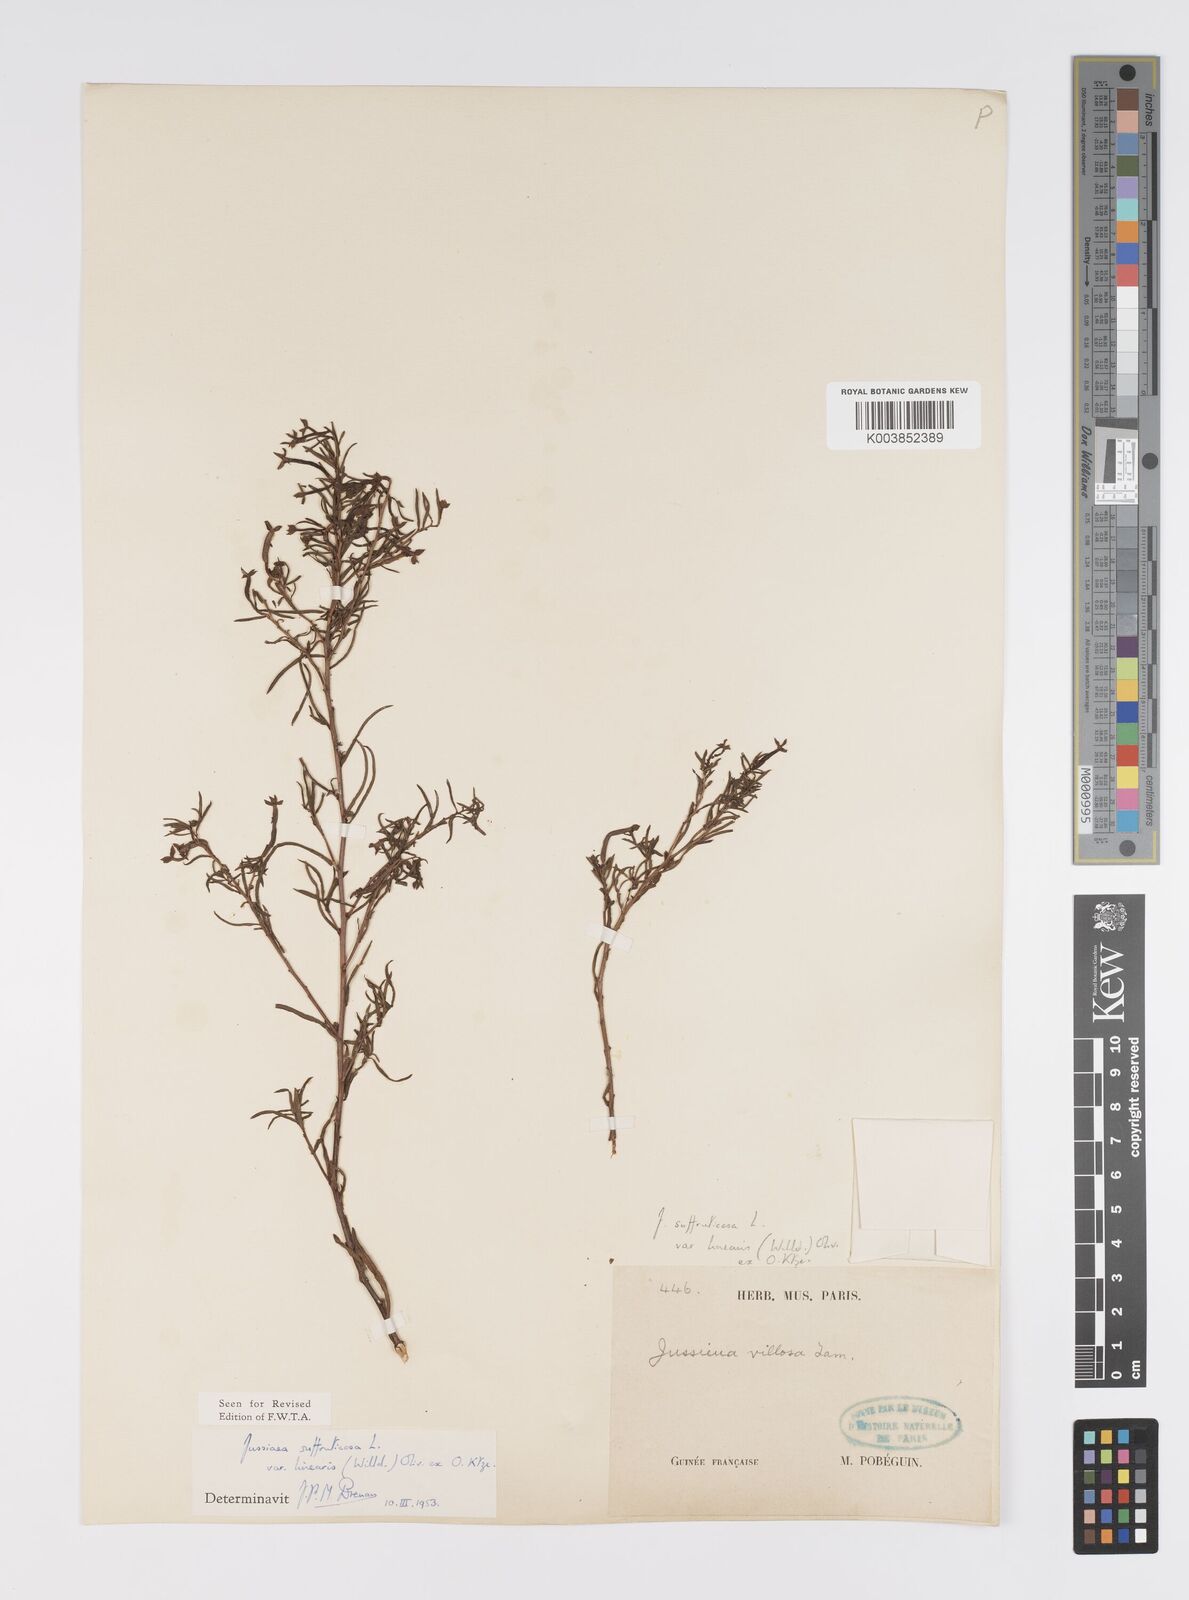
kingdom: Plantae
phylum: Tracheophyta
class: Magnoliopsida
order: Myrtales
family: Onagraceae
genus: Ludwigia
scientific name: Ludwigia suffruticosa
